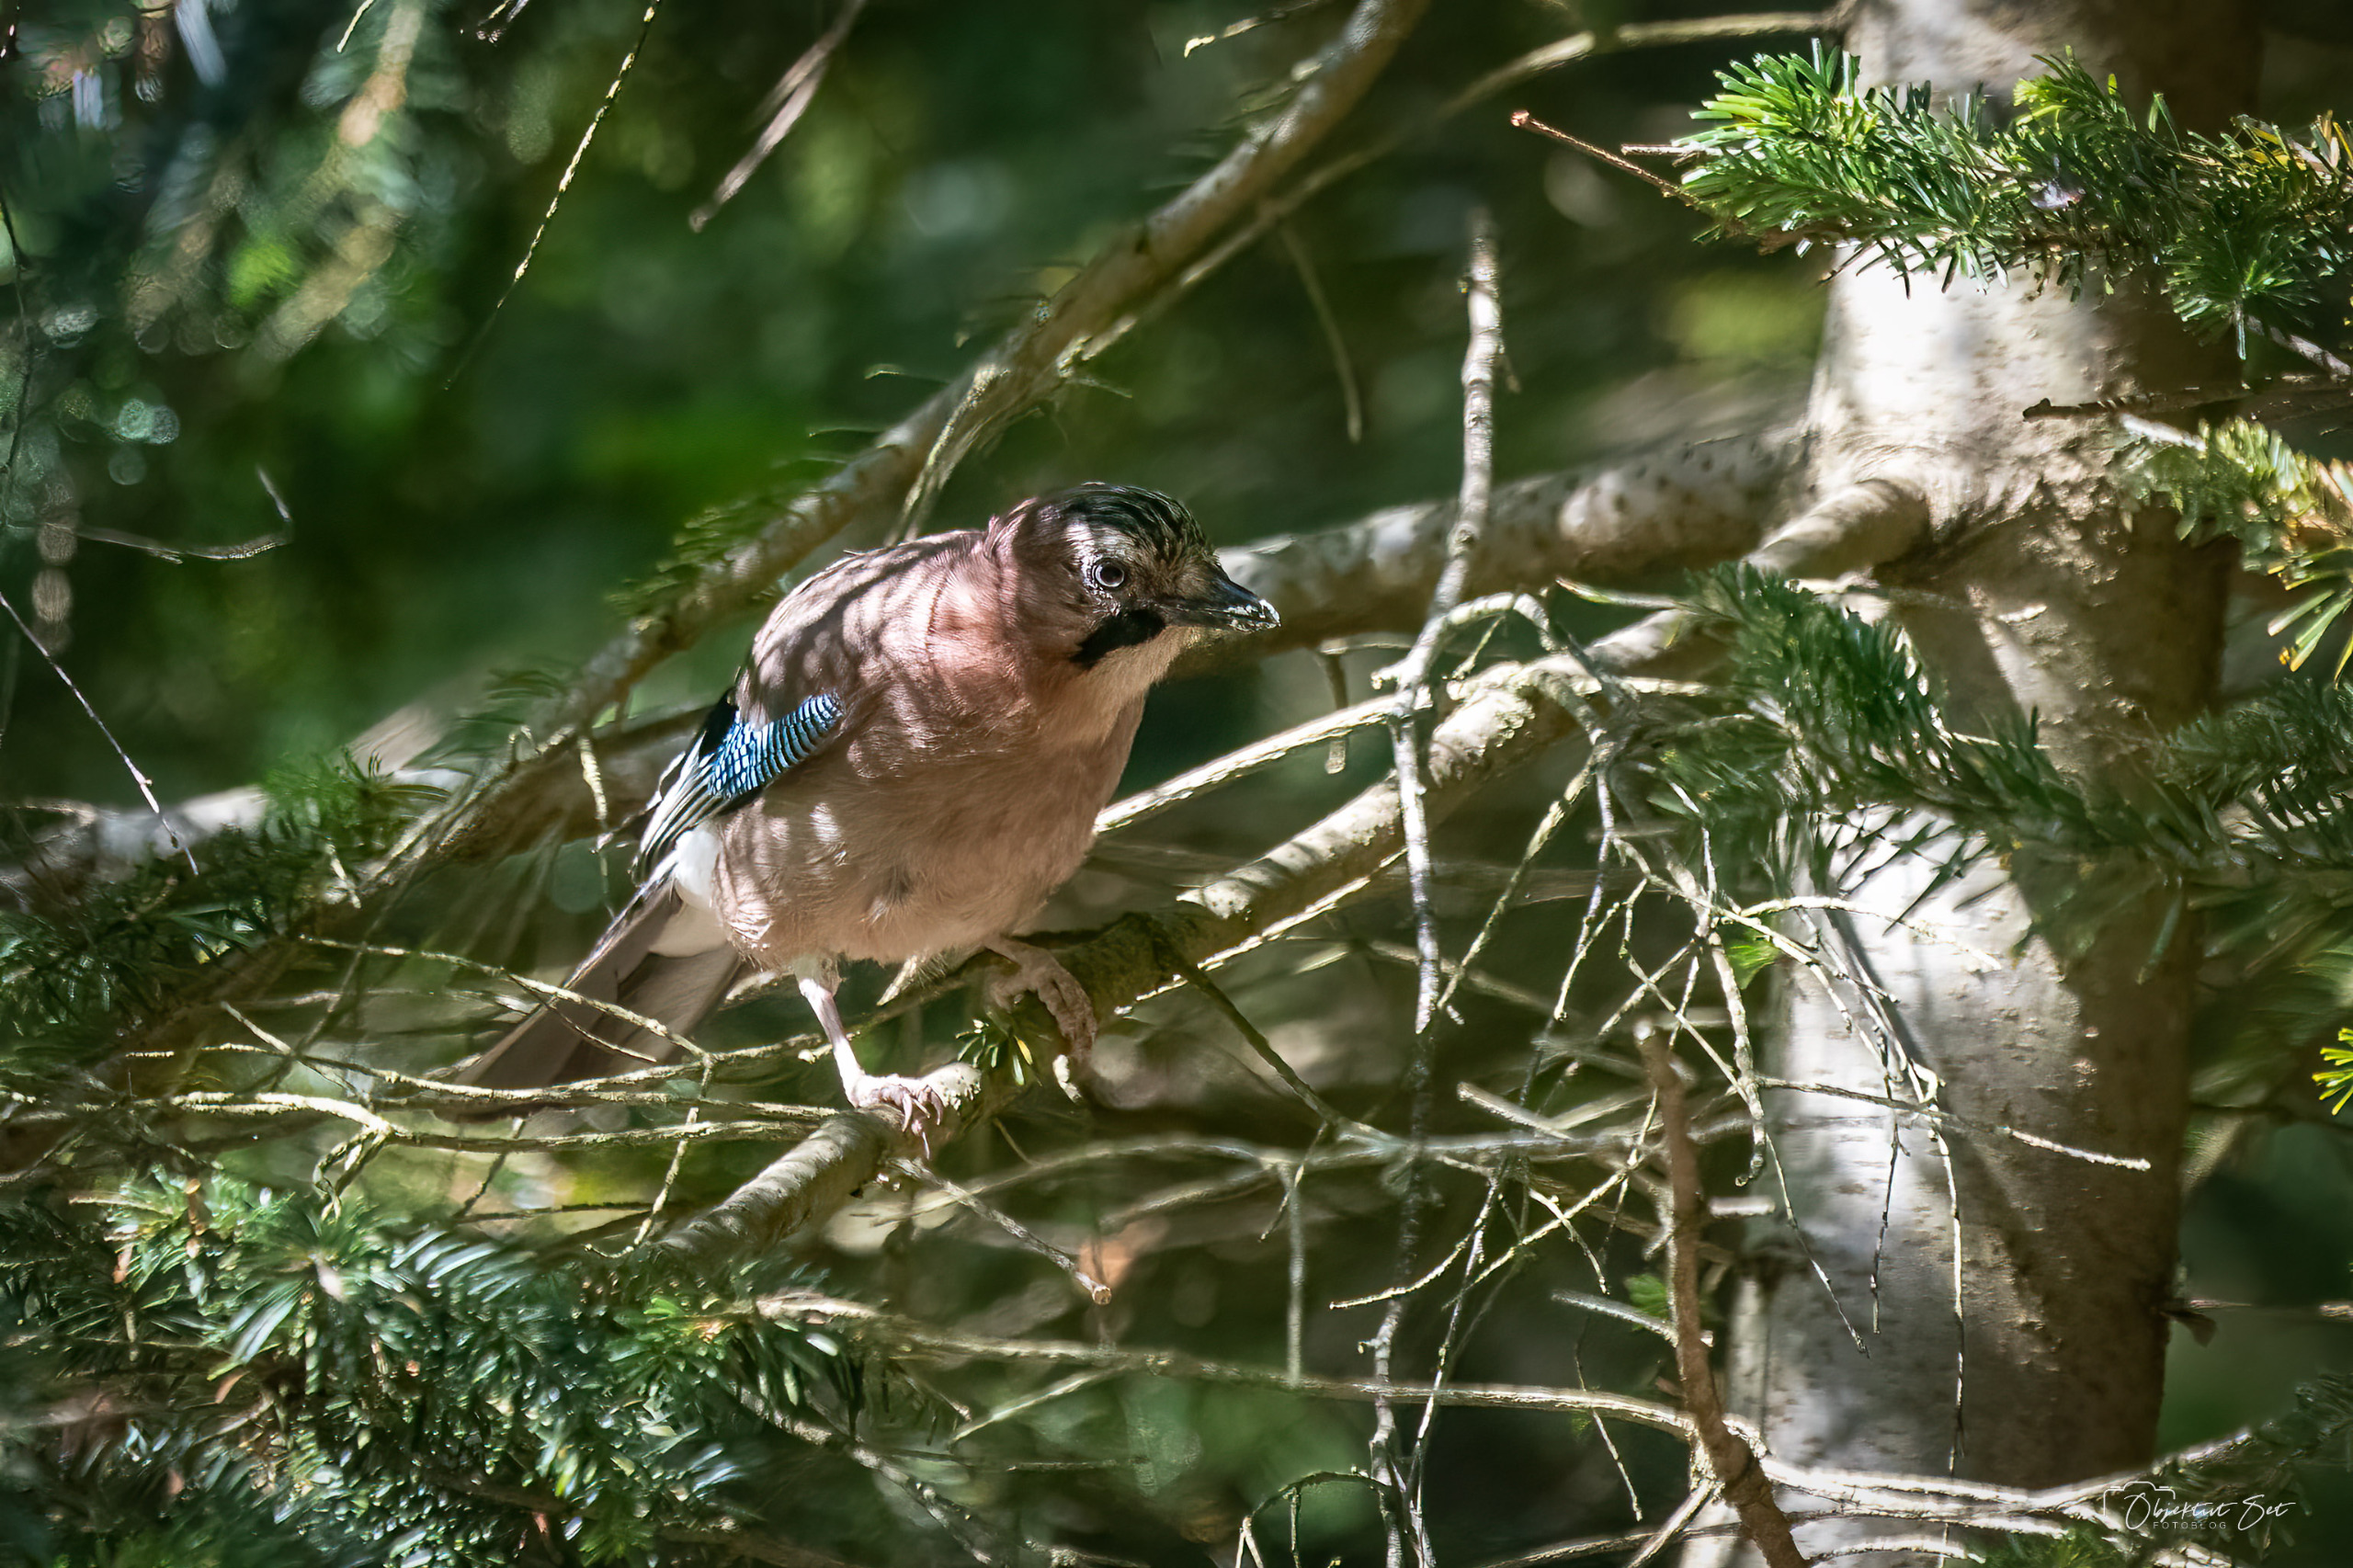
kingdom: Animalia
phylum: Chordata
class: Aves
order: Passeriformes
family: Corvidae
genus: Garrulus
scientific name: Garrulus glandarius
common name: Skovskade
